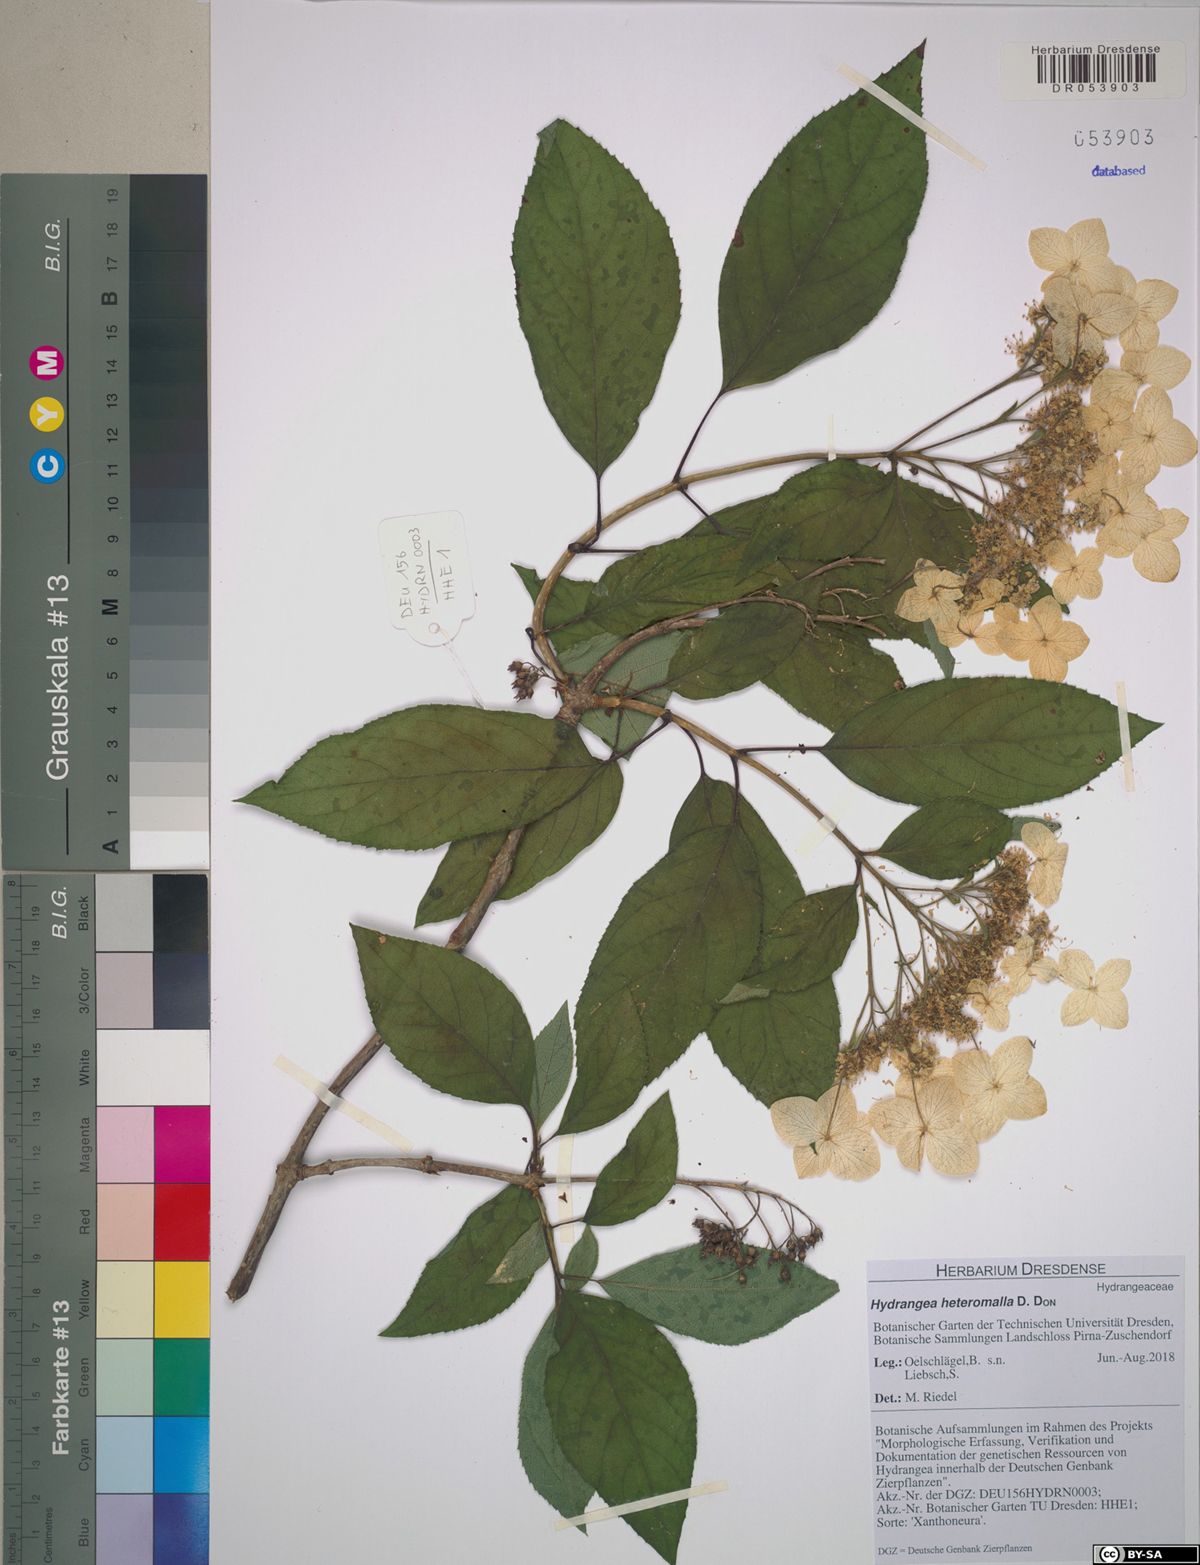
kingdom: Plantae
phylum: Tracheophyta
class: Magnoliopsida
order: Cornales
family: Hydrangeaceae
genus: Hydrangea
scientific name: Hydrangea heteromalla
